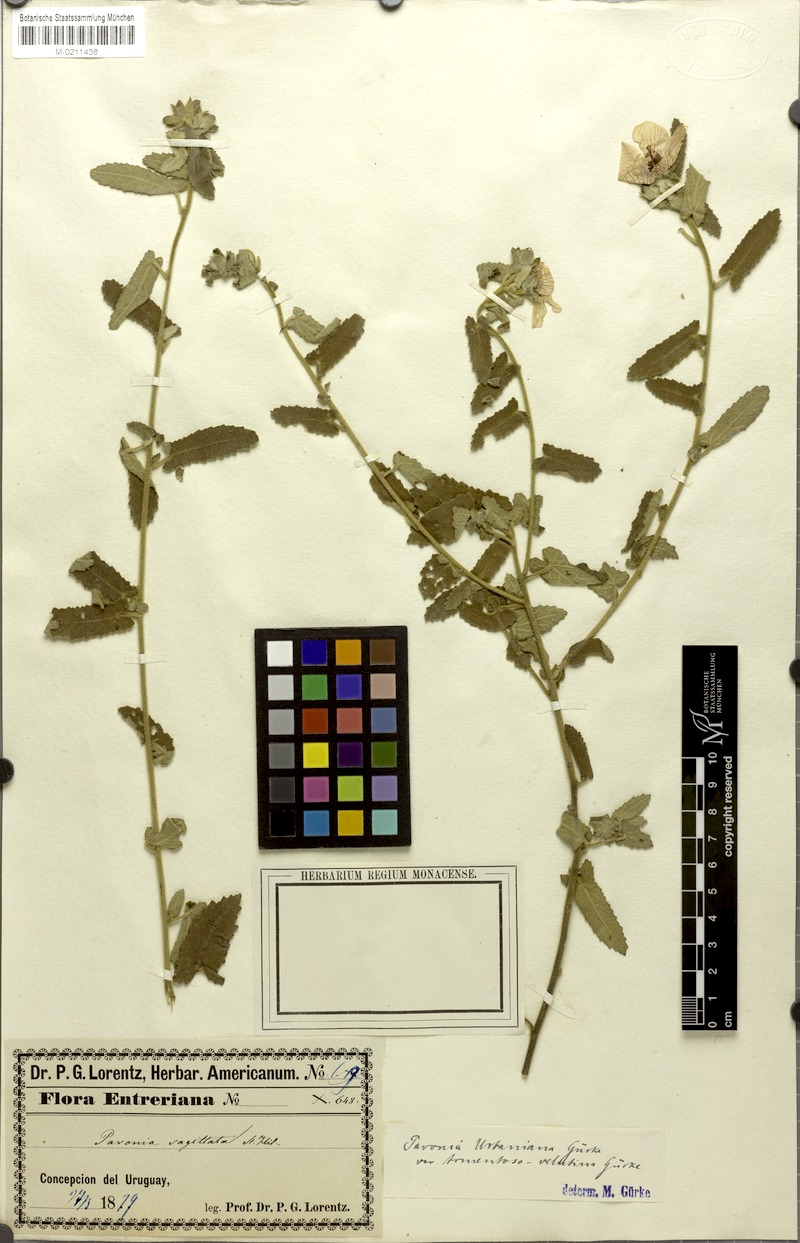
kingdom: Plantae
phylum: Tracheophyta
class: Magnoliopsida
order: Malvales
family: Malvaceae
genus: Pavonia
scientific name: Pavonia distinguenda
